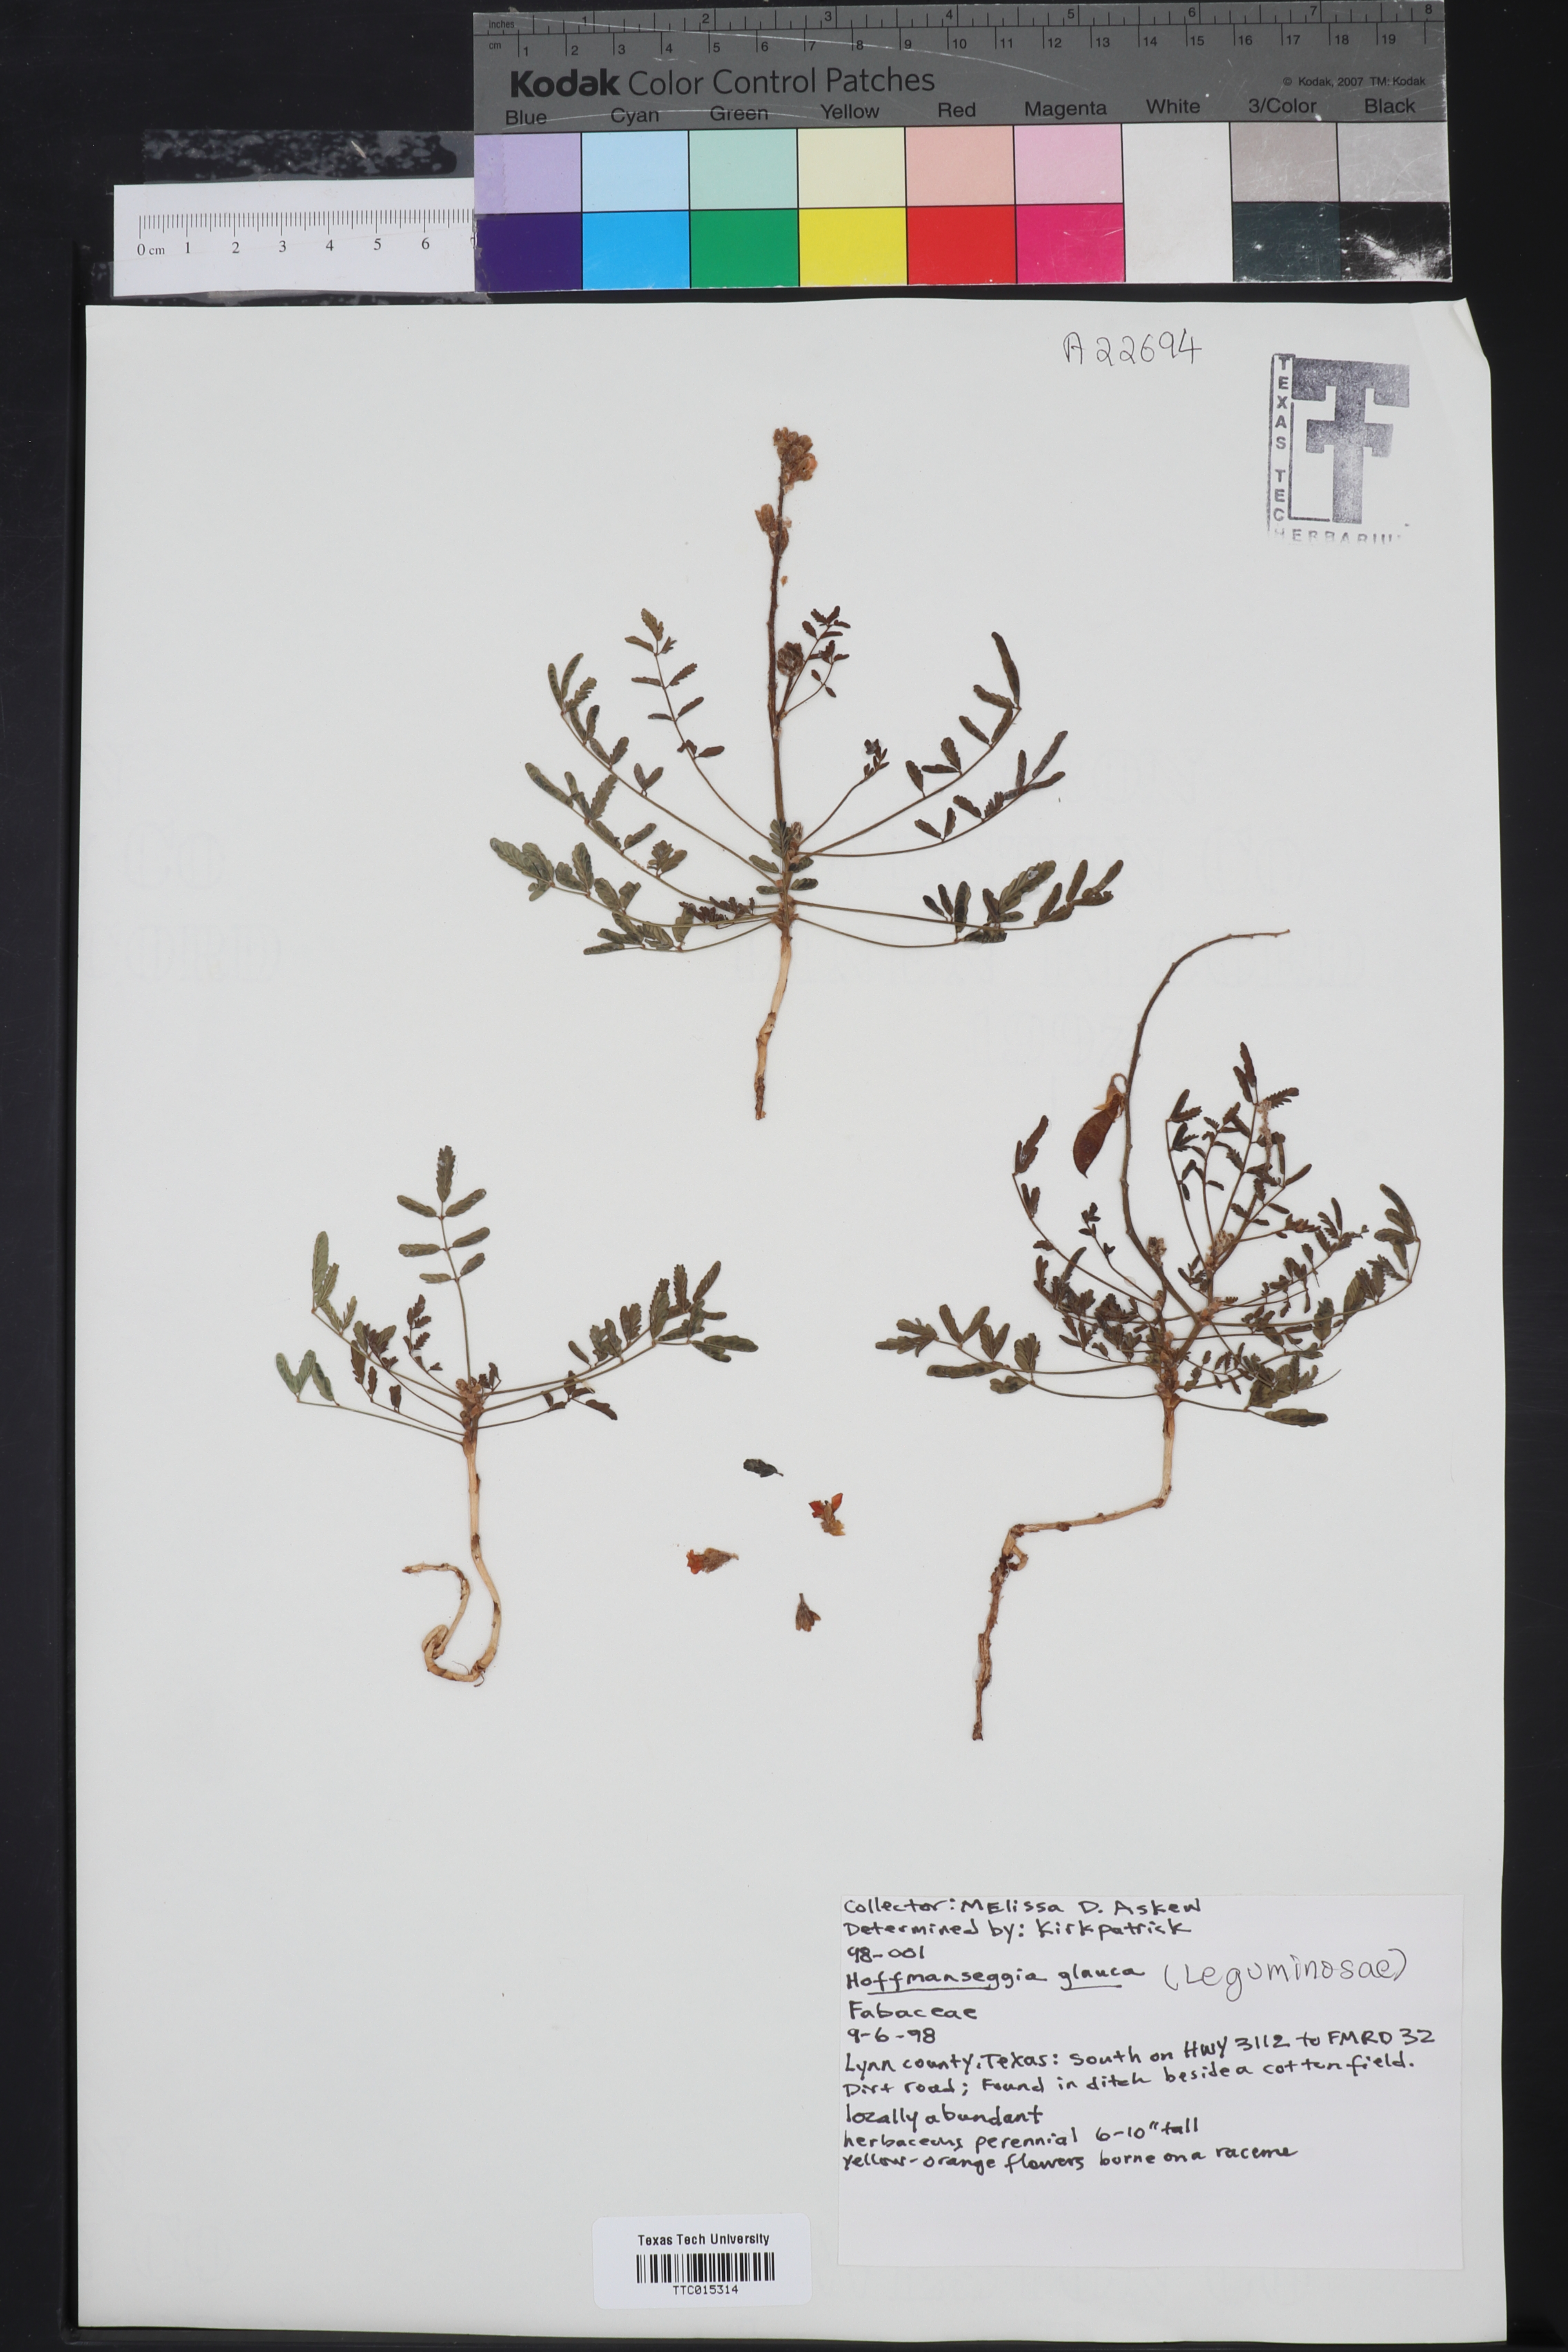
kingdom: Plantae
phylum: Tracheophyta
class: Magnoliopsida
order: Fabales
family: Fabaceae
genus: Hoffmannseggia
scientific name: Hoffmannseggia glauca
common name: Pignut
